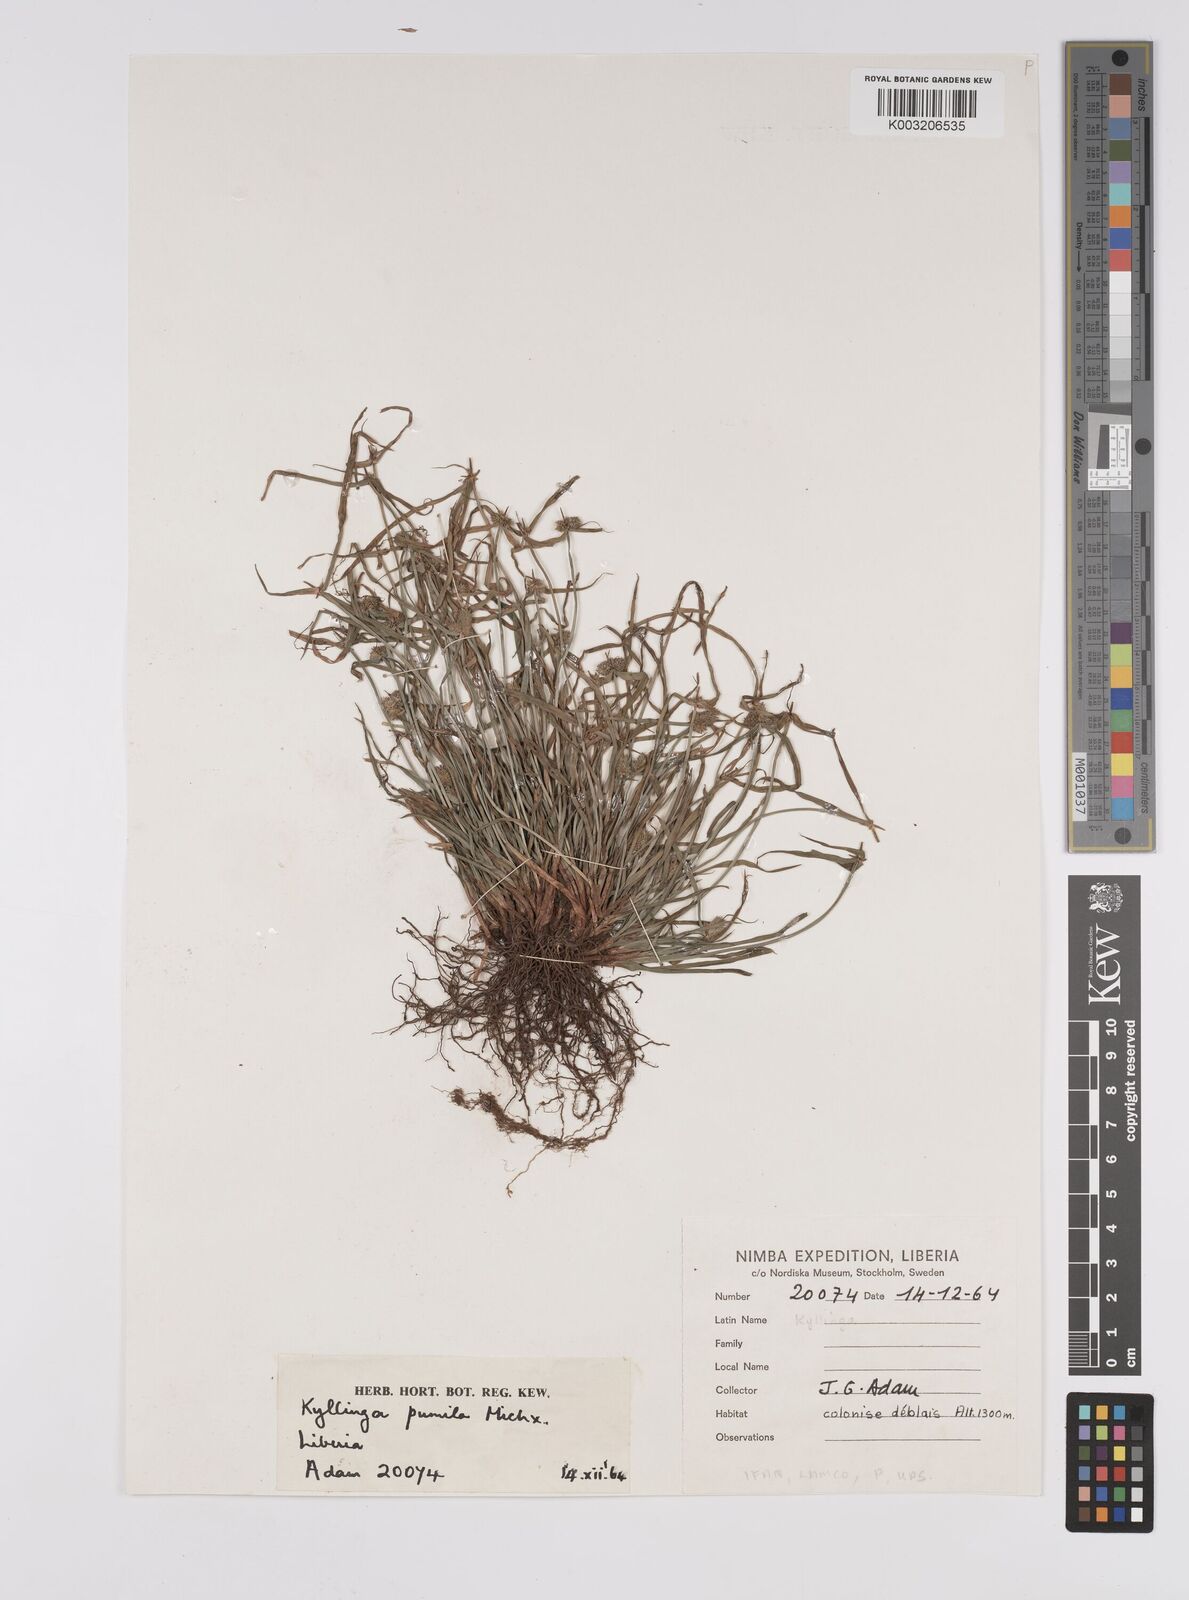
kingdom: Plantae
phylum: Tracheophyta
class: Liliopsida
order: Poales
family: Cyperaceae
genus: Cyperus
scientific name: Cyperus
